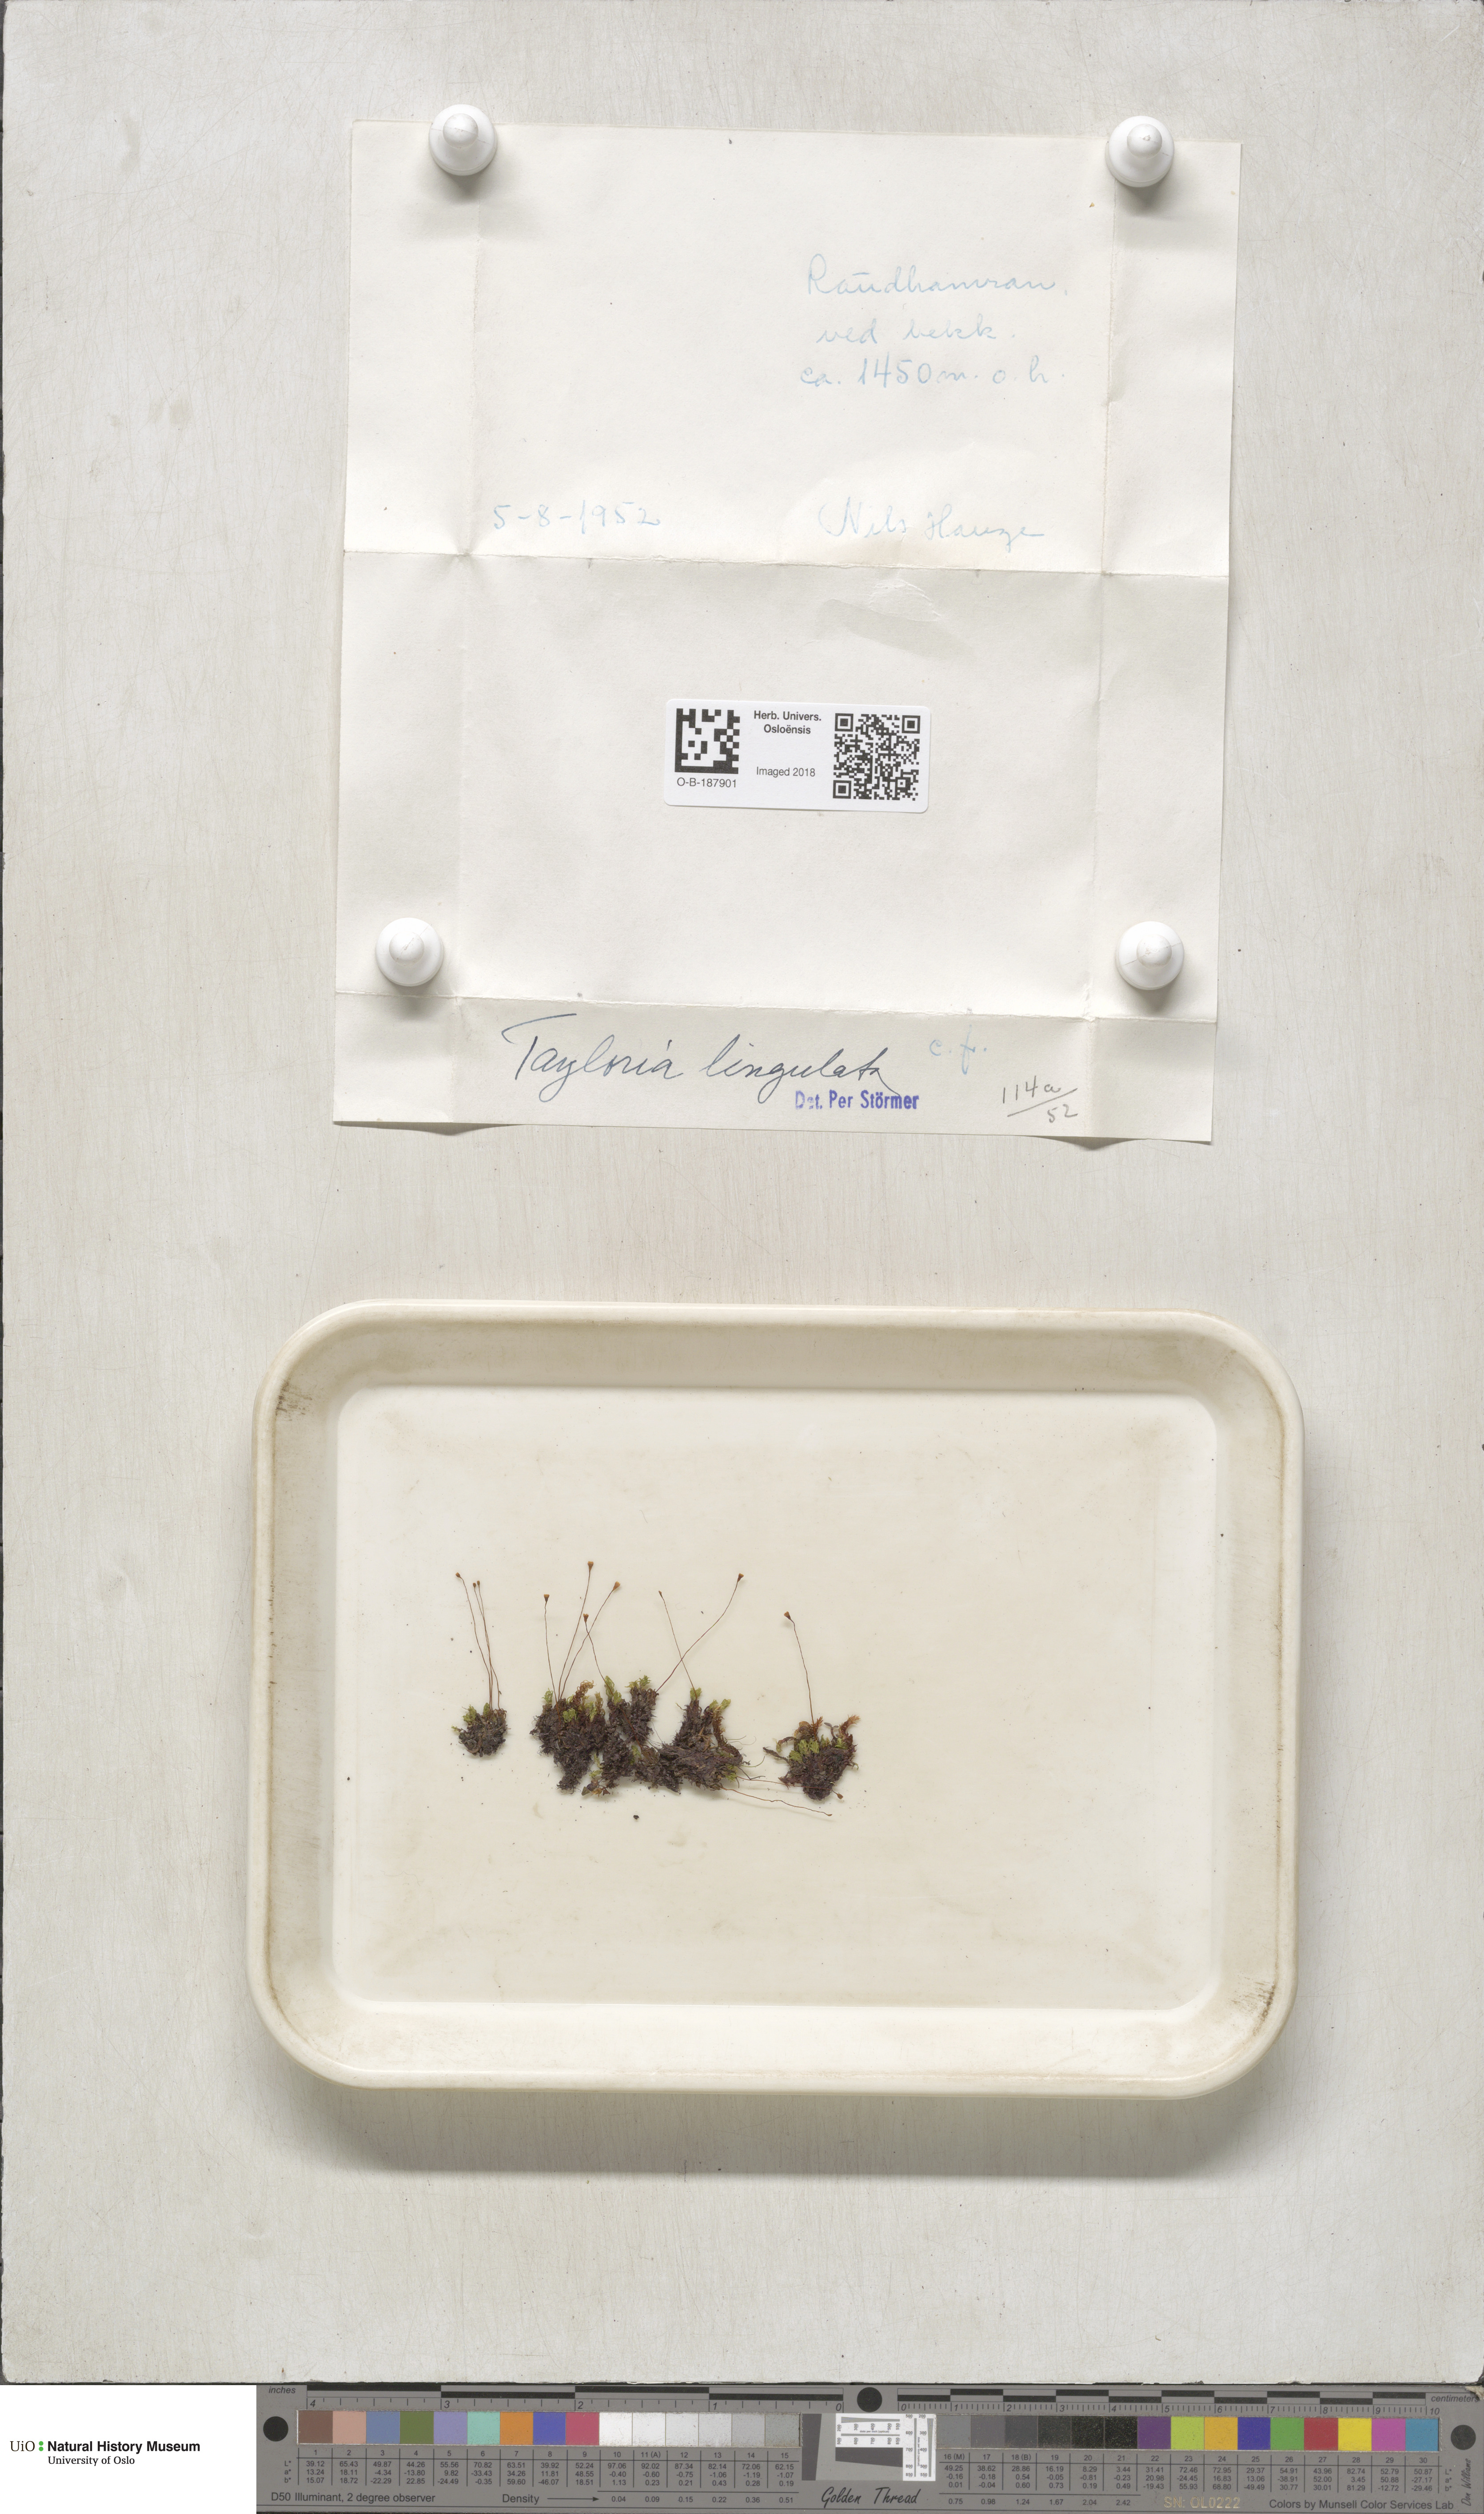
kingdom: Plantae
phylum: Bryophyta
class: Bryopsida
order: Splachnales
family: Splachnaceae
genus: Tayloria
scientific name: Tayloria lingulata
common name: Tongue-leaved trumpet moss
